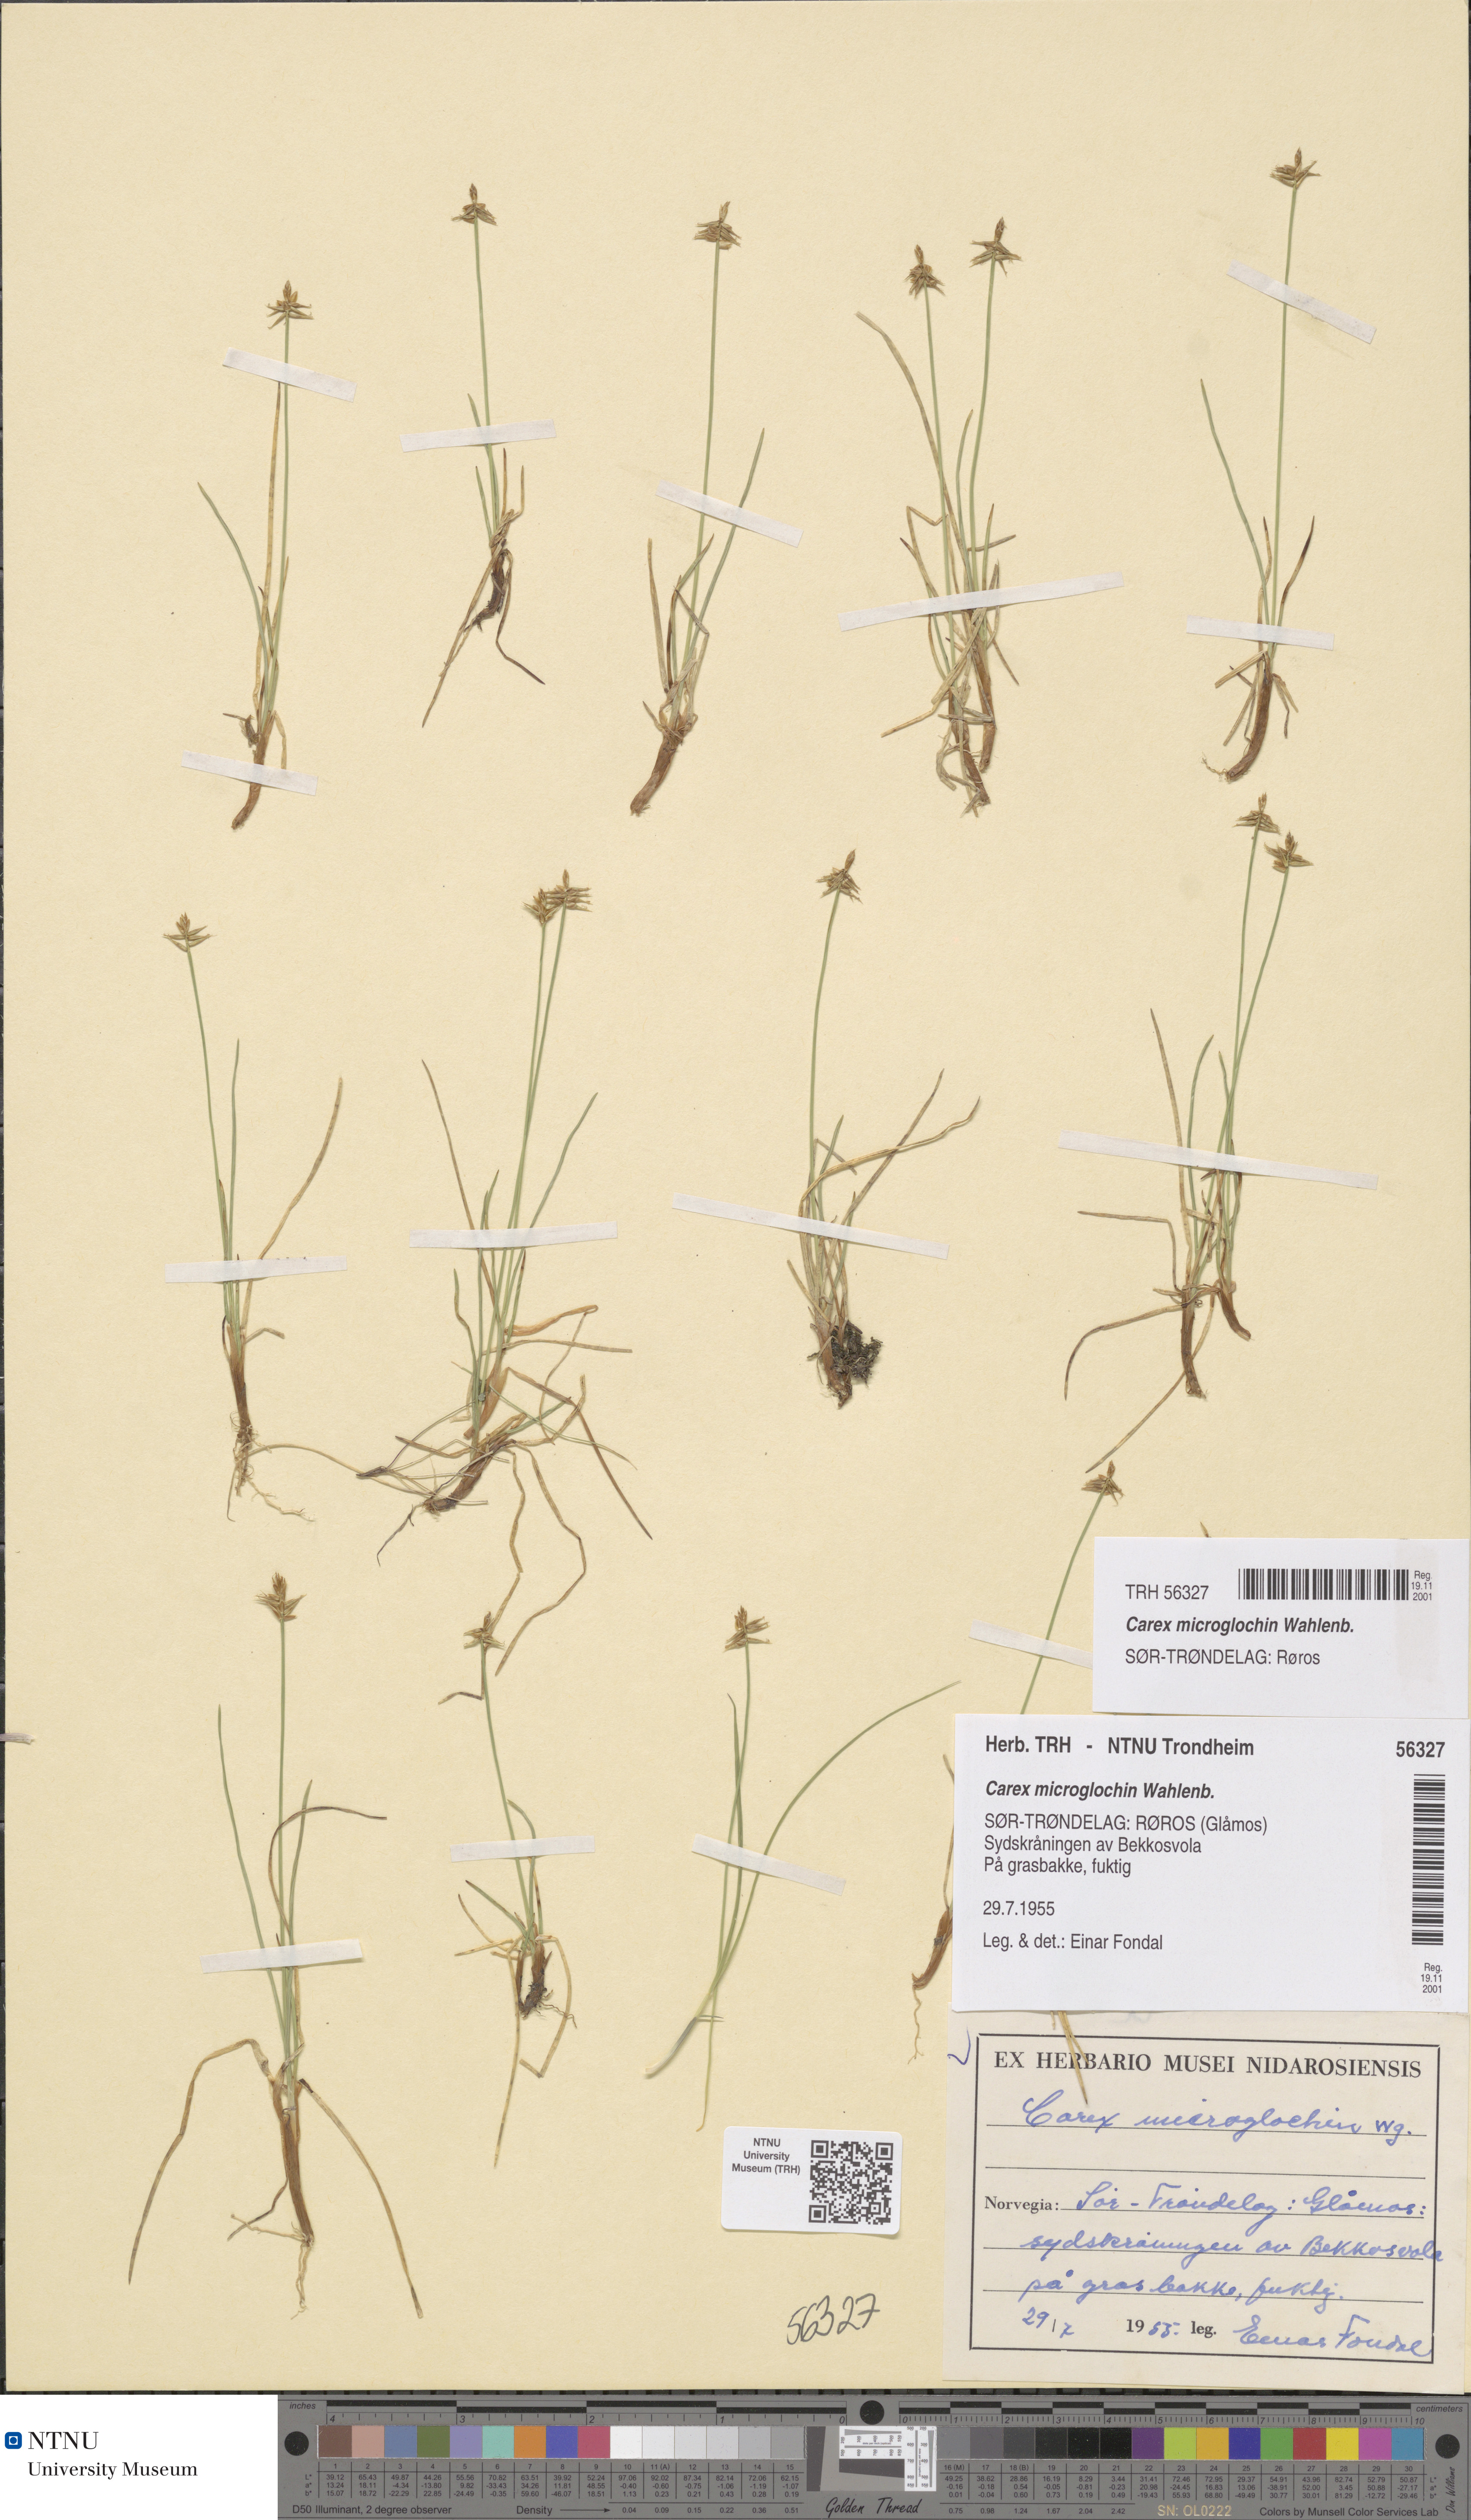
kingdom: Plantae
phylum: Tracheophyta
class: Liliopsida
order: Poales
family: Cyperaceae
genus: Carex
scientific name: Carex microglochin
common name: Bristle sedge
